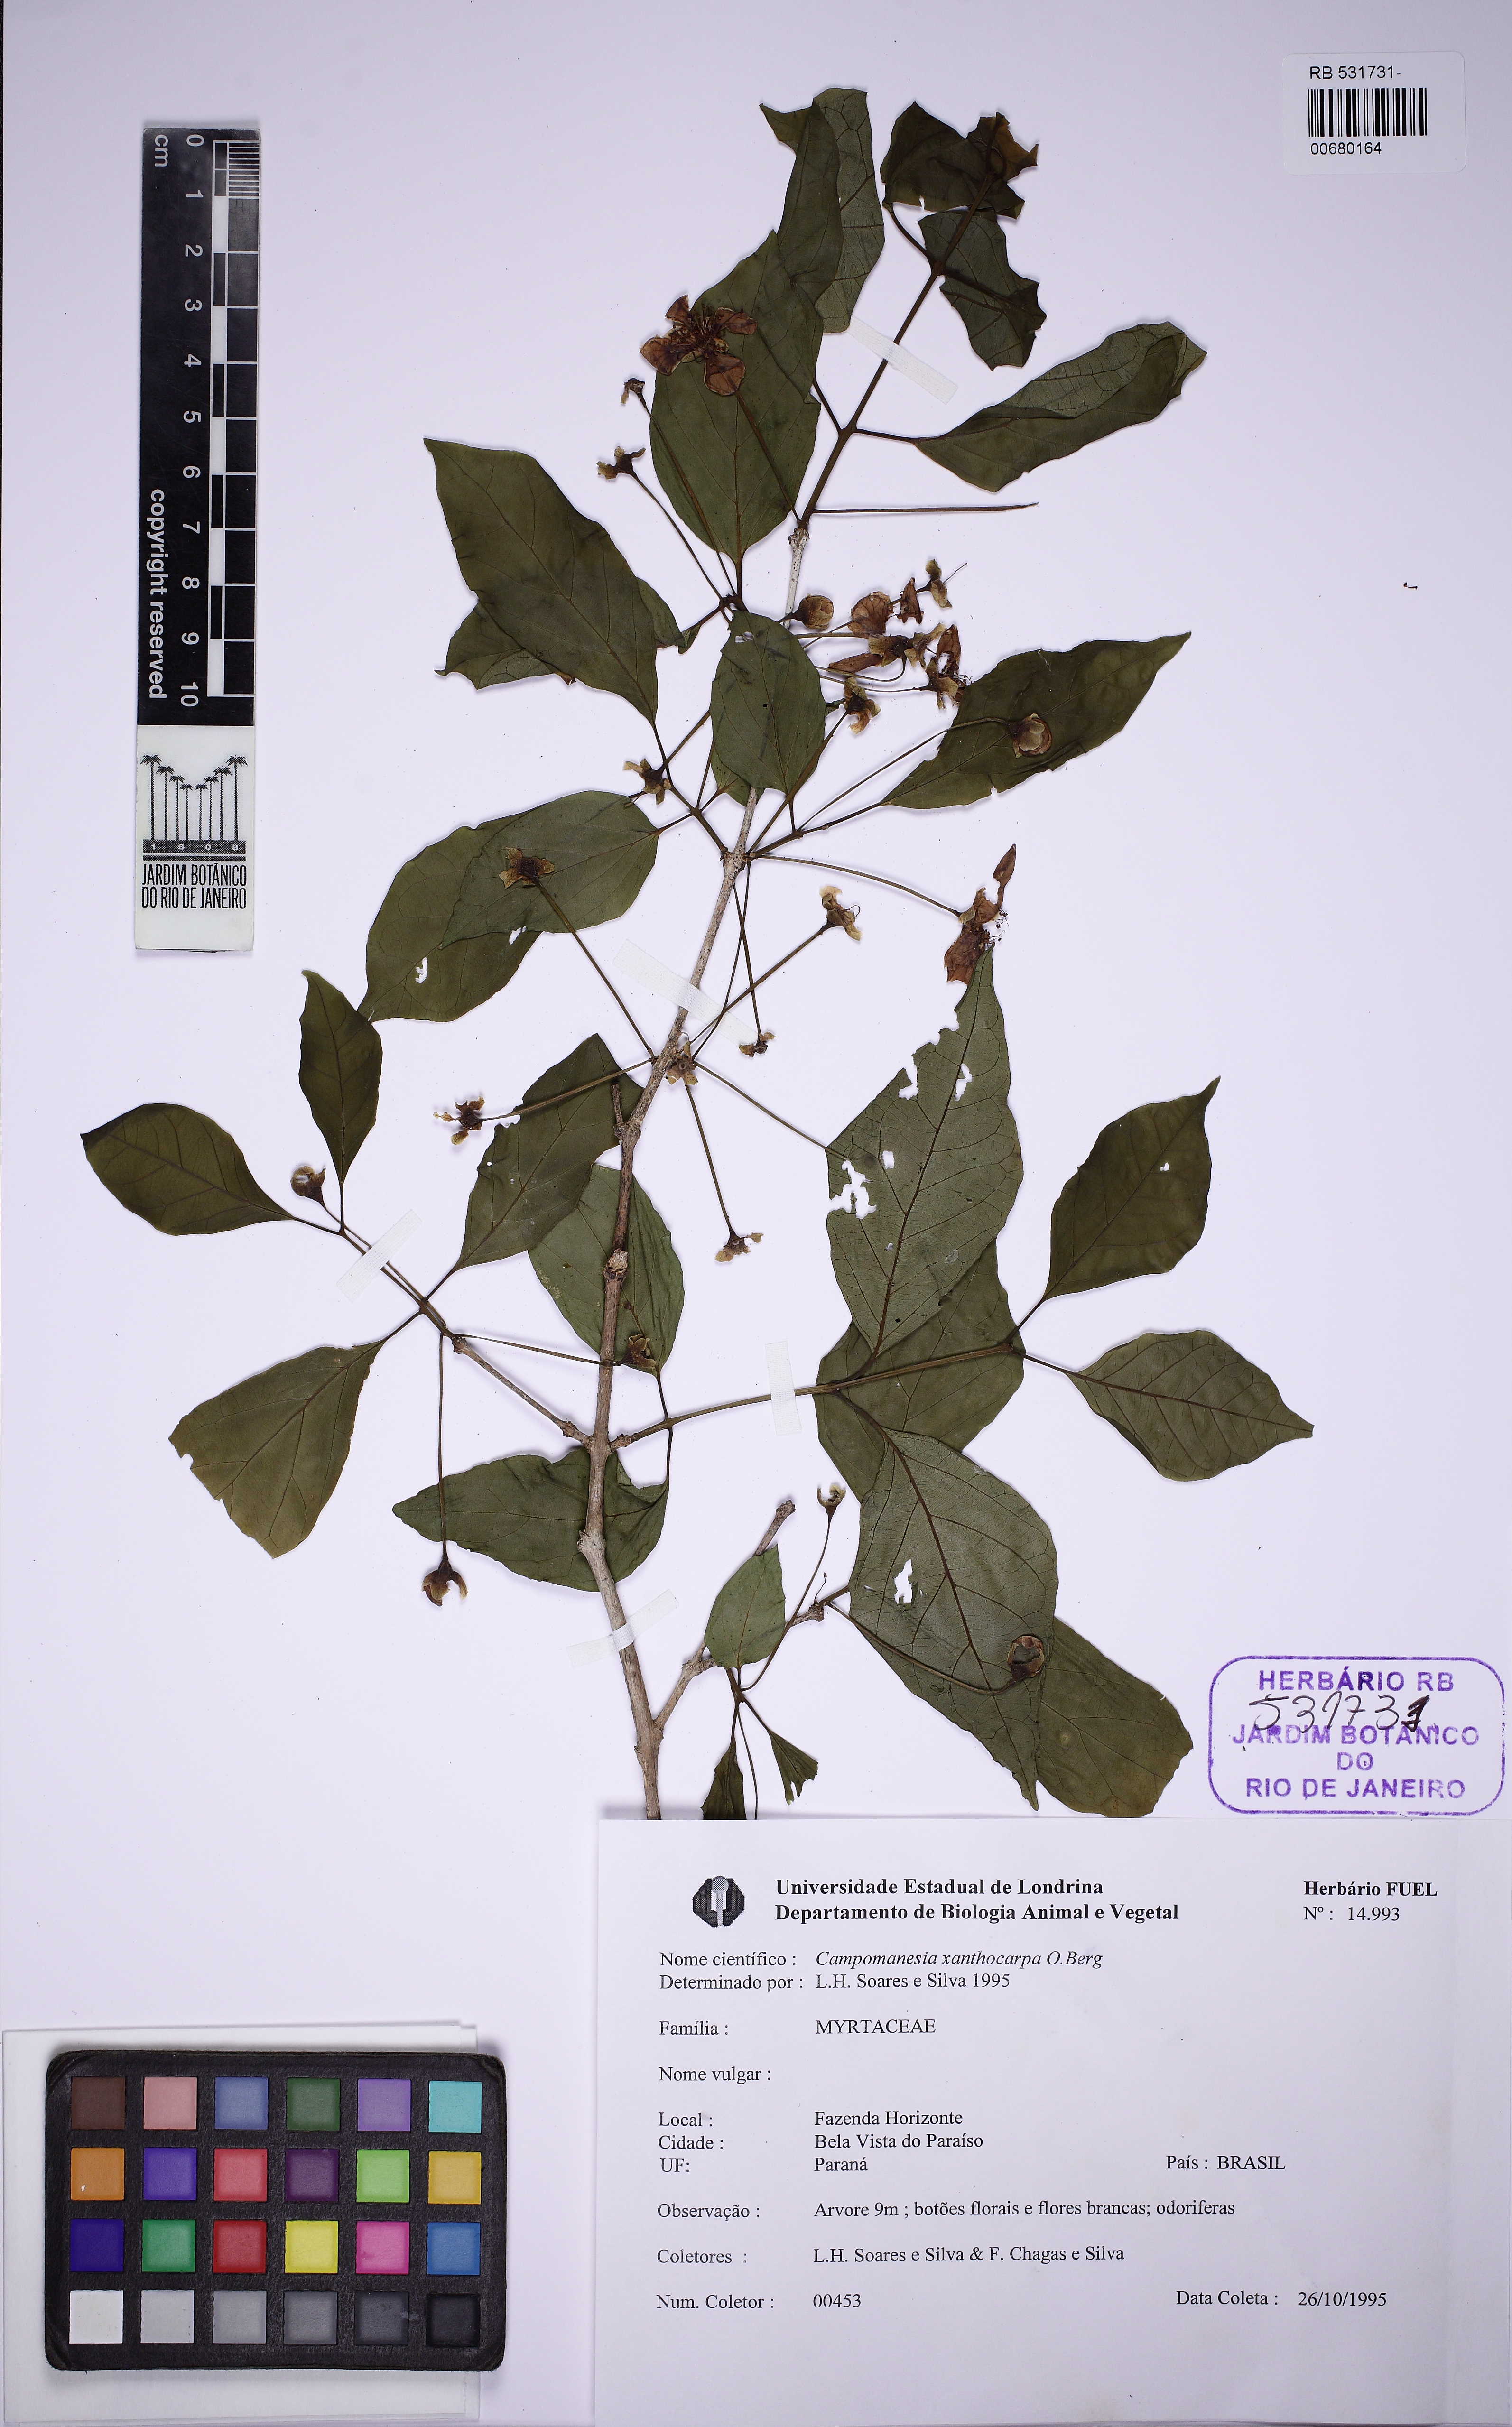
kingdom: Plantae
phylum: Tracheophyta
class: Magnoliopsida
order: Myrtales
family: Myrtaceae
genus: Campomanesia
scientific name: Campomanesia xanthocarpa
